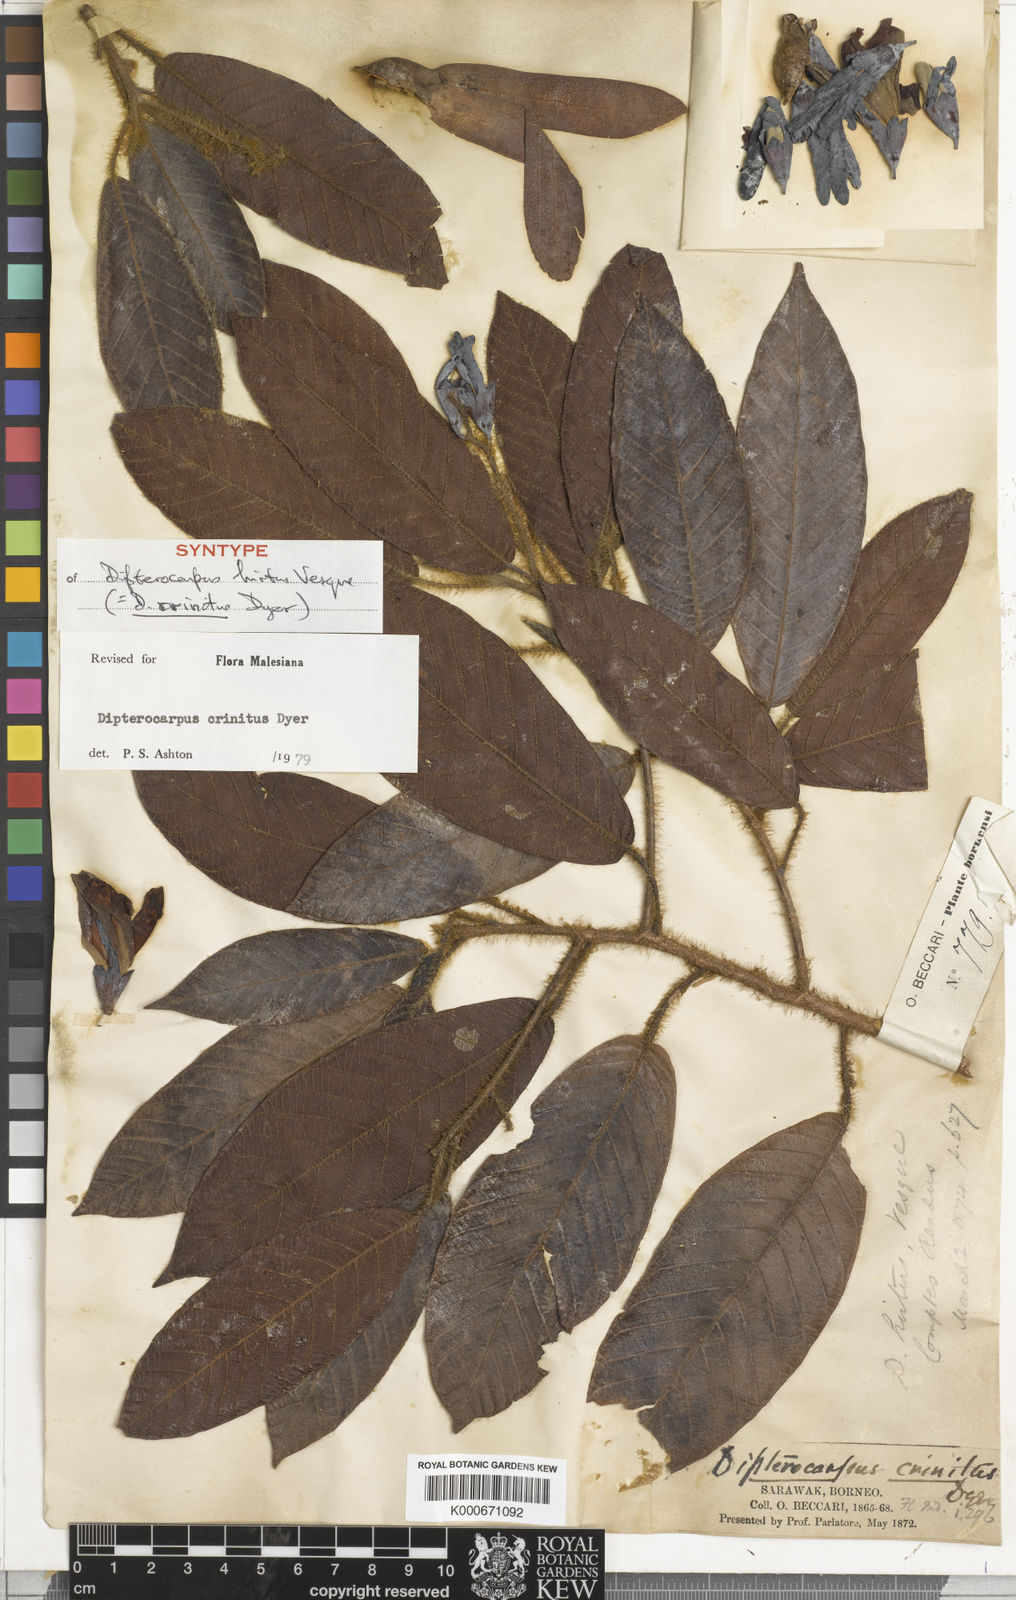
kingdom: Plantae
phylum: Tracheophyta
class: Magnoliopsida
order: Malvales
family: Dipterocarpaceae
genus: Dipterocarpus
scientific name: Dipterocarpus crinitus
